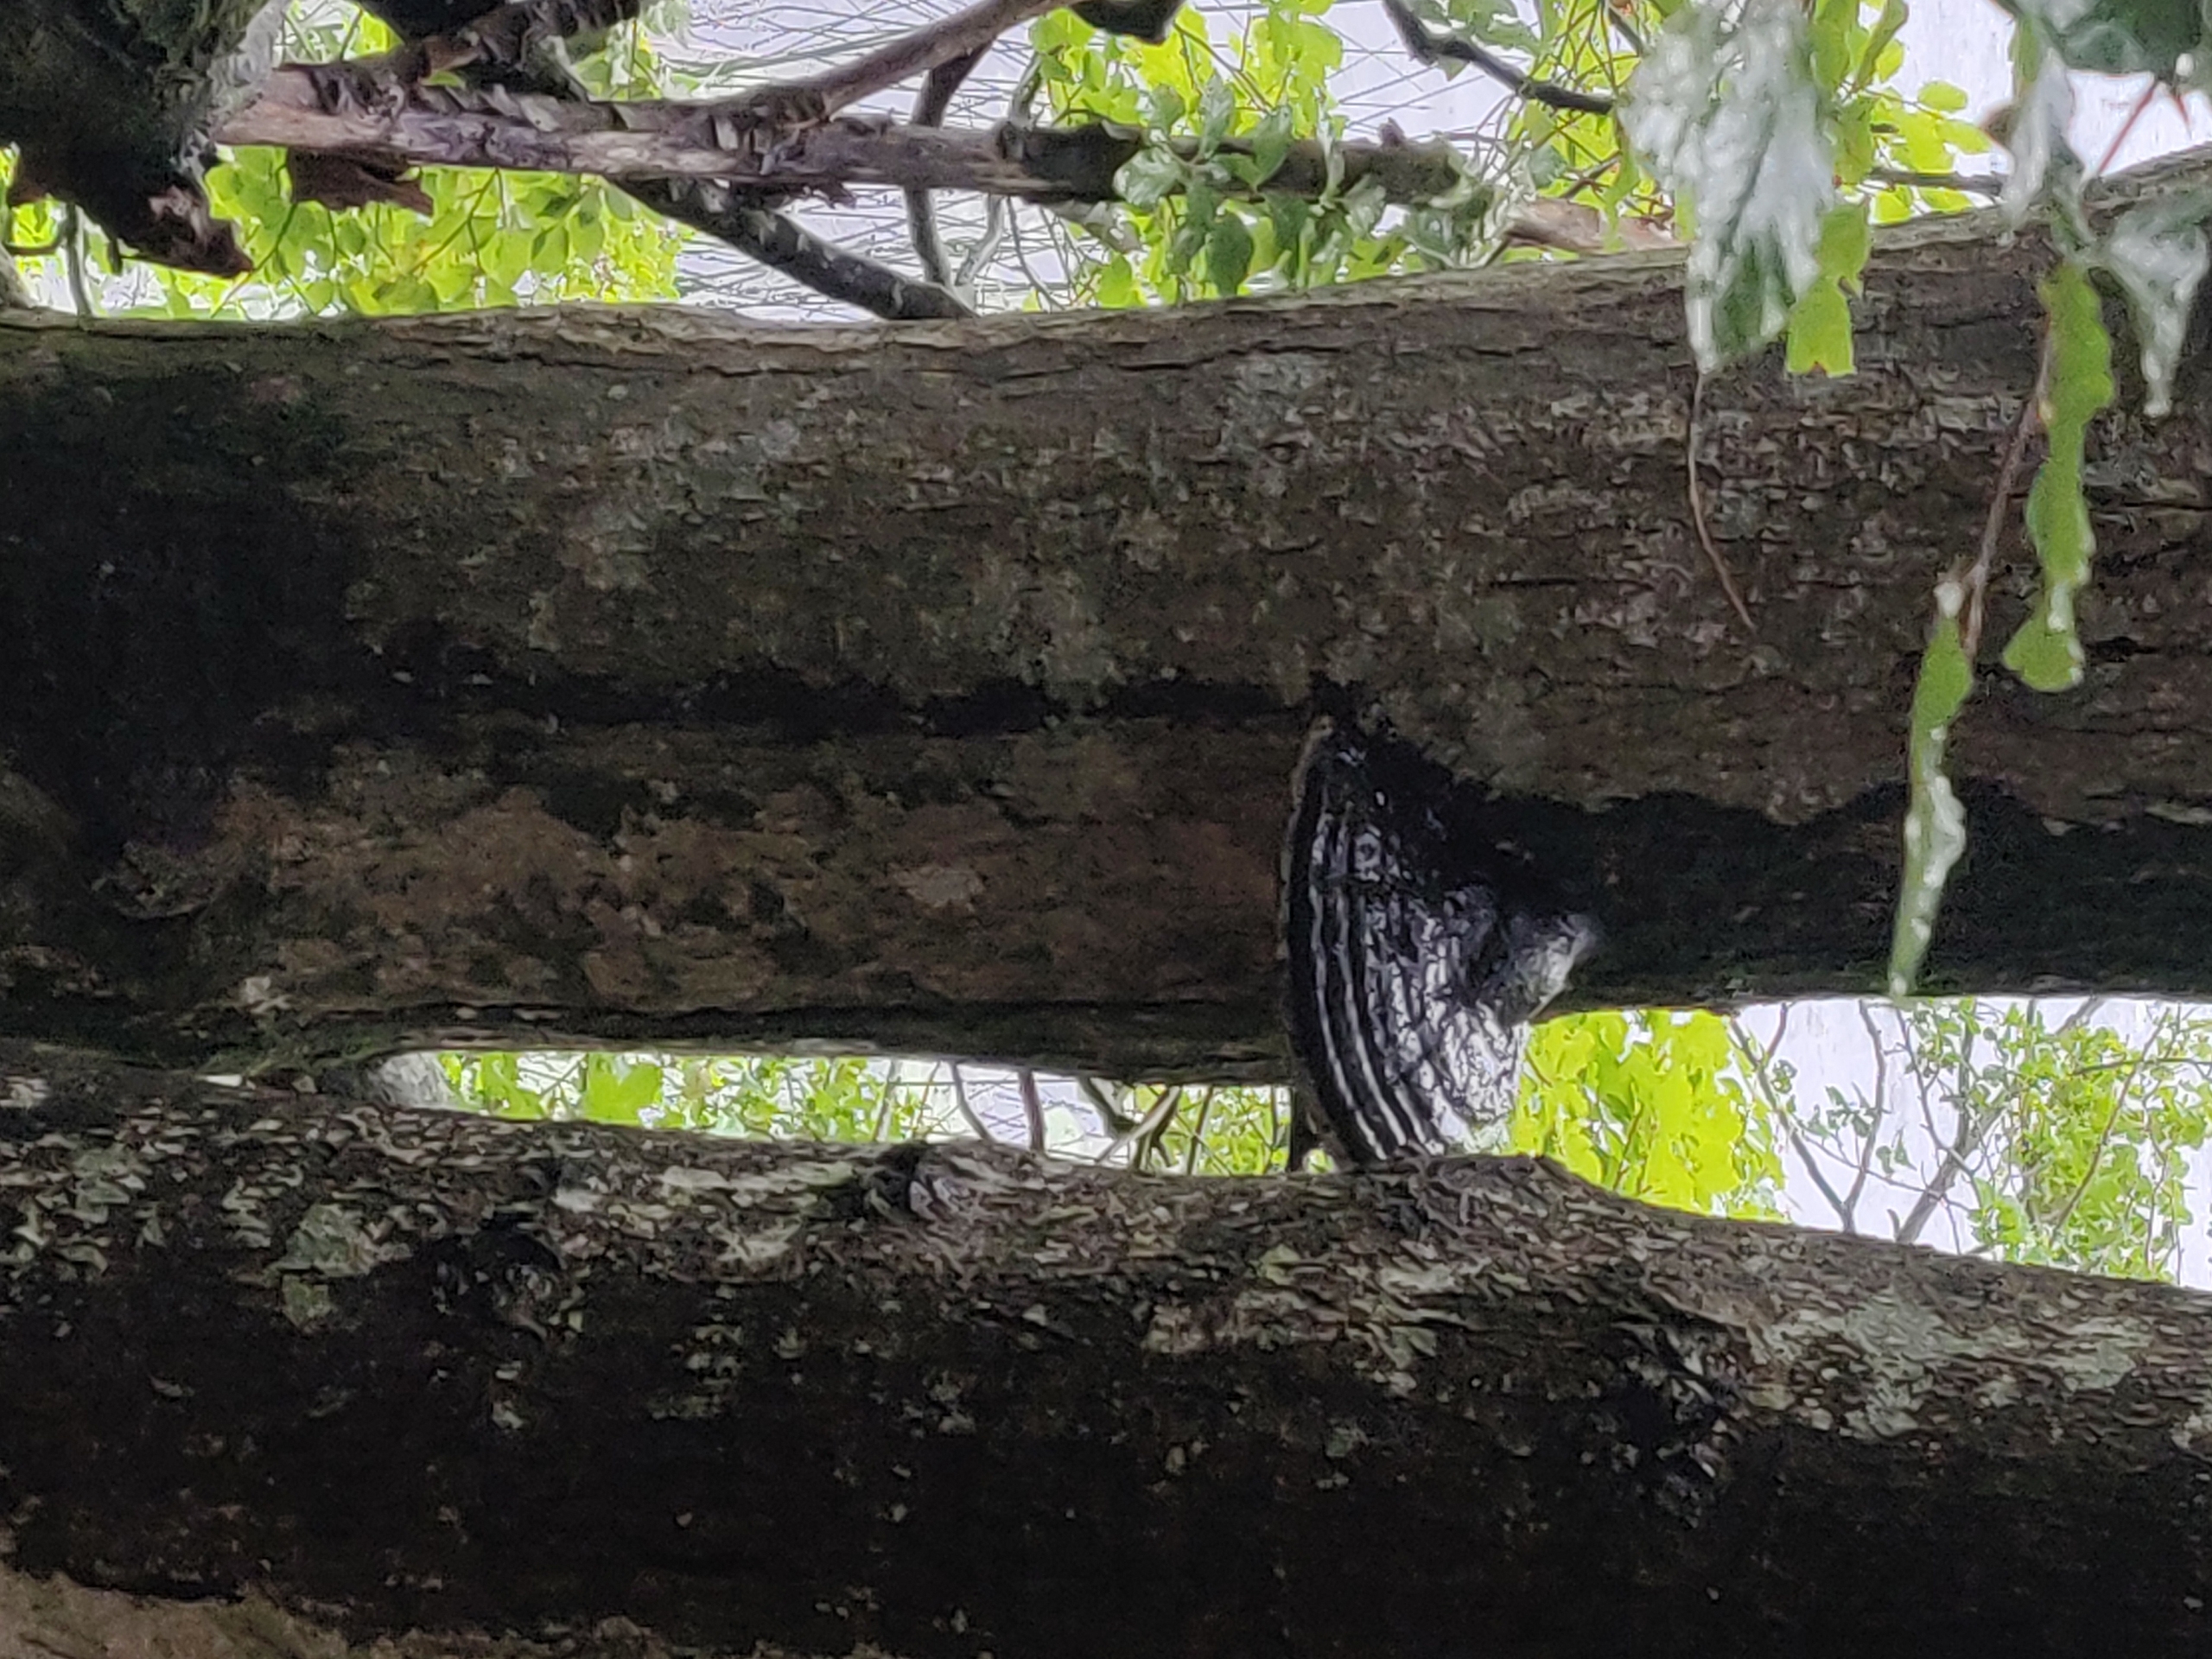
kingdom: Fungi
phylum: Basidiomycota
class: Agaricomycetes
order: Polyporales
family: Polyporaceae
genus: Fomes
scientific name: Fomes fomentarius
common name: Tøndersvamp
